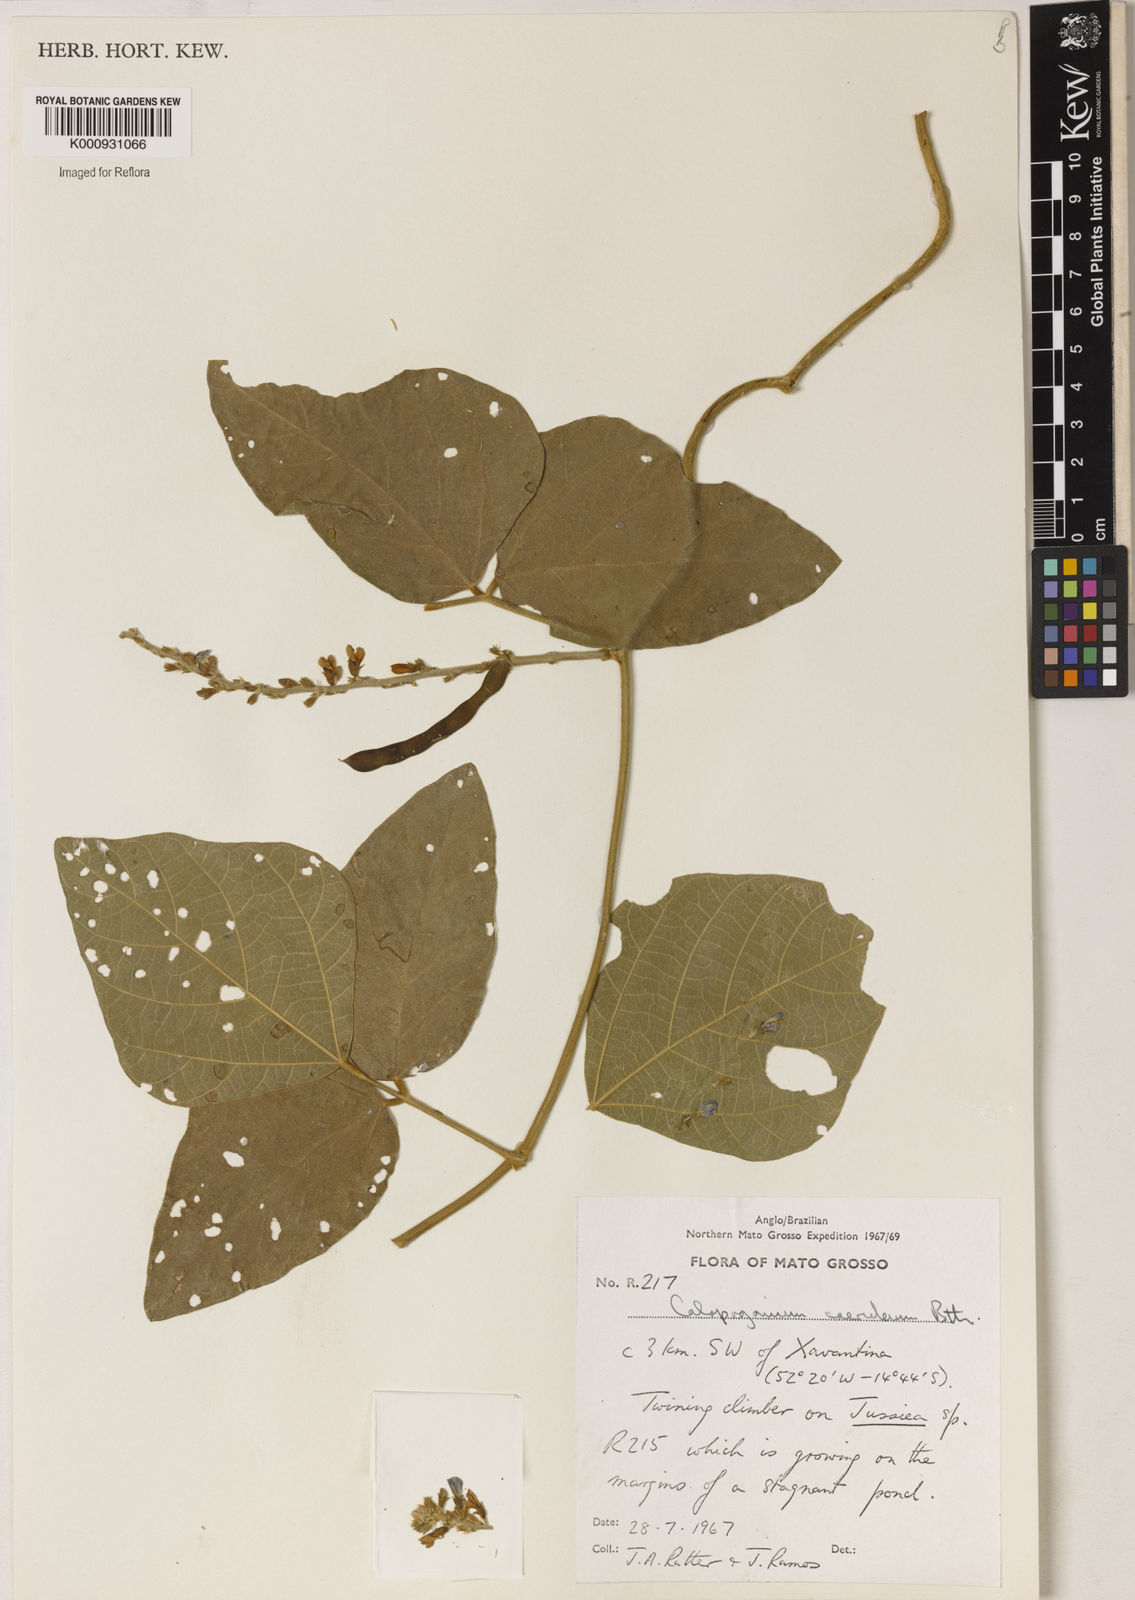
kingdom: Plantae
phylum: Tracheophyta
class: Magnoliopsida
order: Fabales
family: Fabaceae
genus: Calopogonium
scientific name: Calopogonium caeruleum
